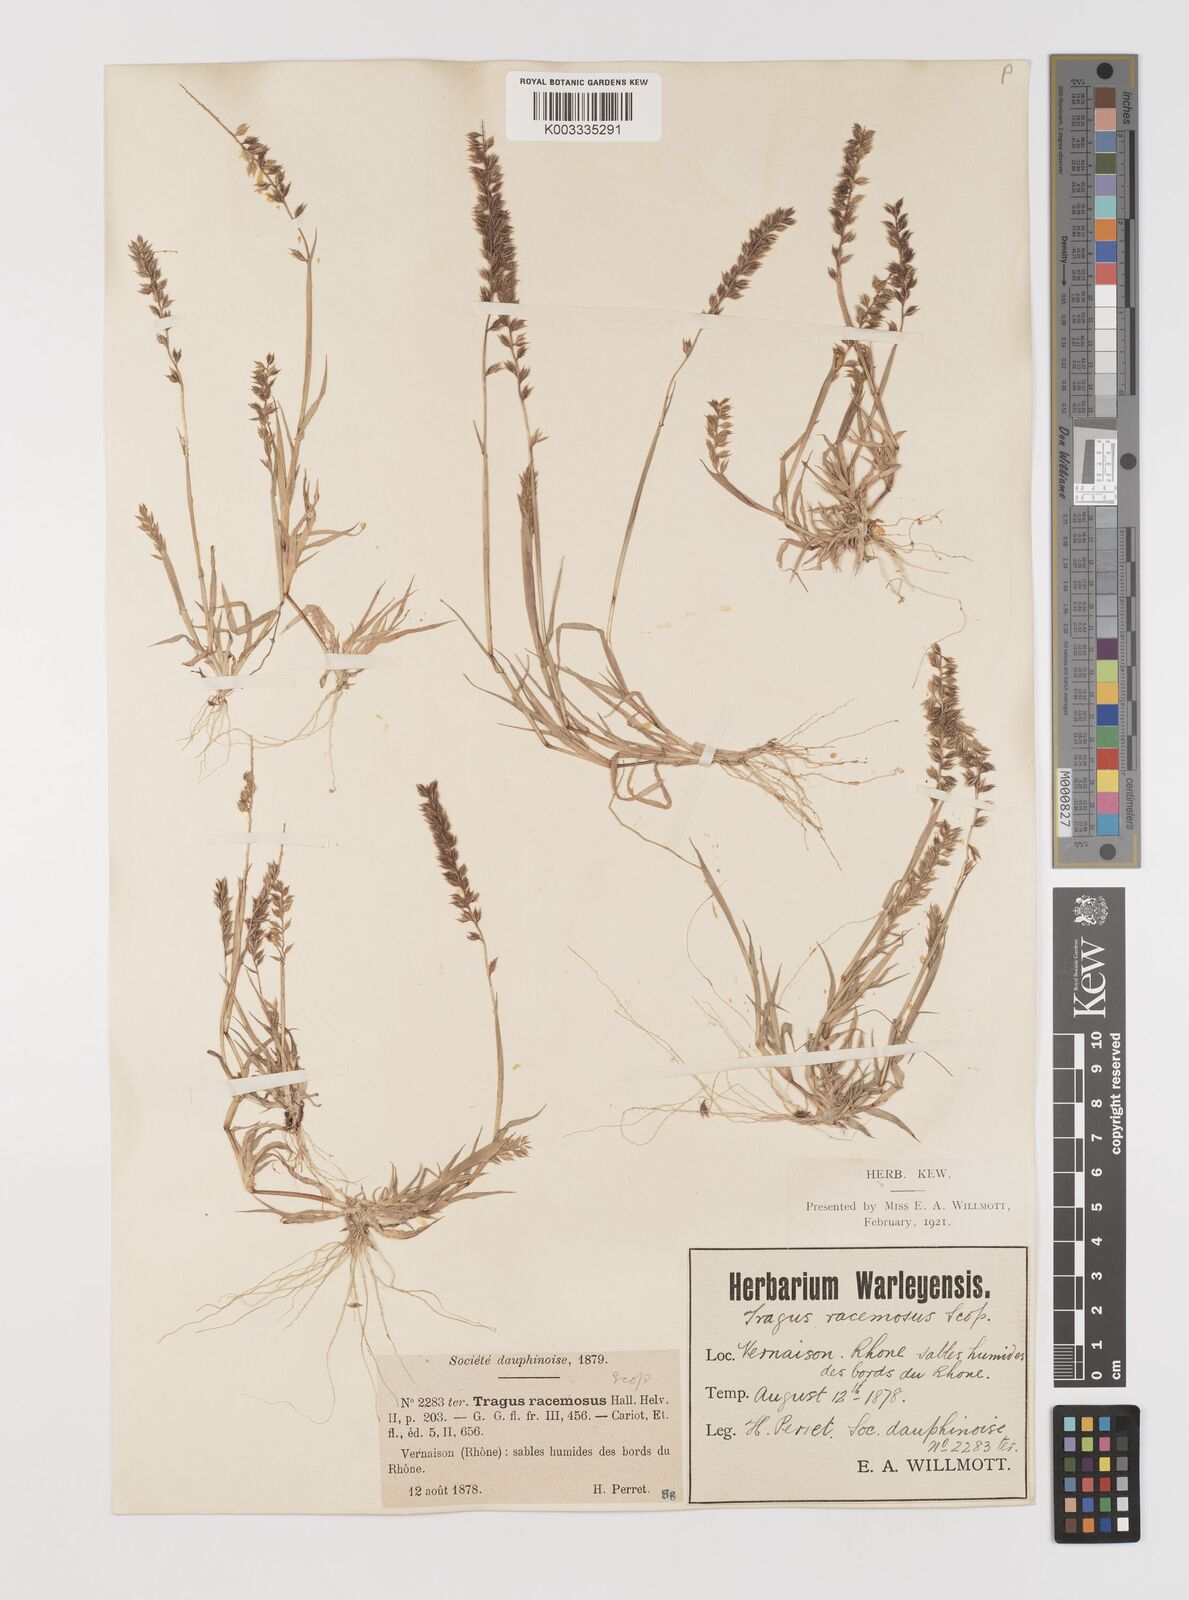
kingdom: Plantae
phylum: Tracheophyta
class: Liliopsida
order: Poales
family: Poaceae
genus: Tragus
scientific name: Tragus racemosus
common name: European bur-grass
